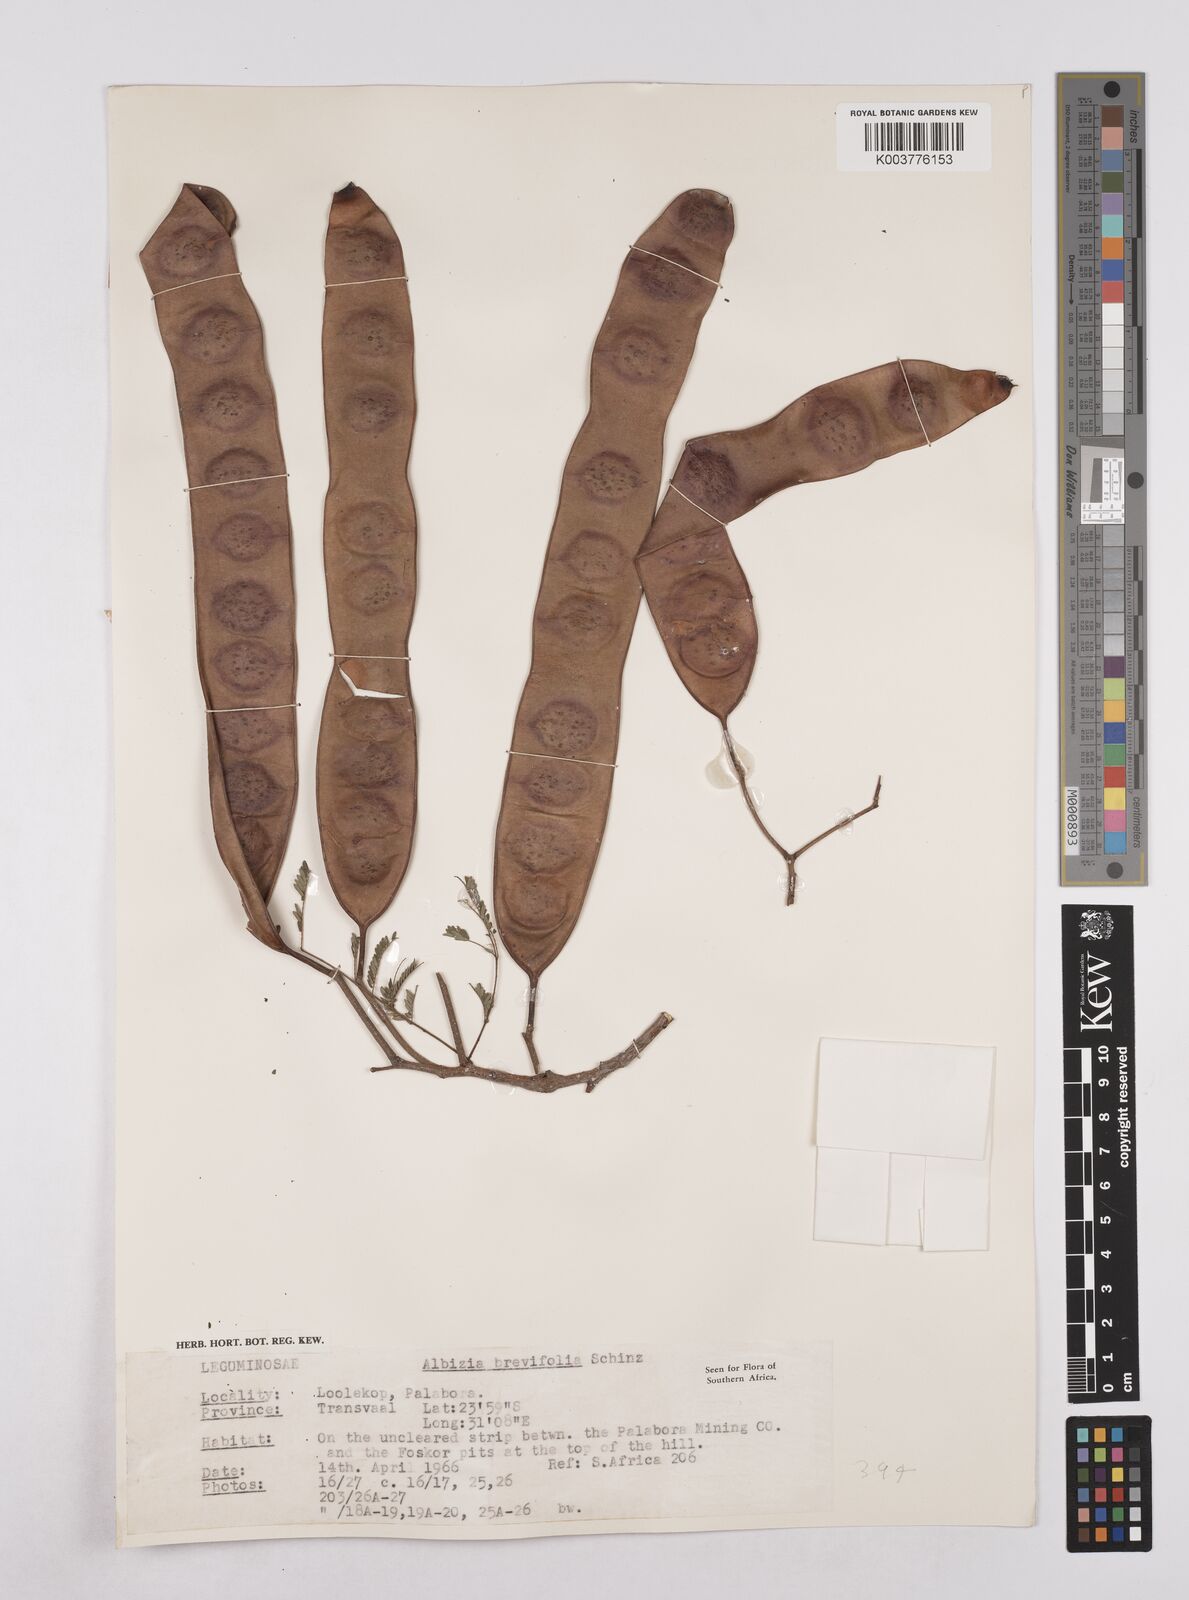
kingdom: Plantae
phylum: Tracheophyta
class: Magnoliopsida
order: Fabales
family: Fabaceae
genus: Albizia
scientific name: Albizia brevifolia
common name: Rock false-thorn
